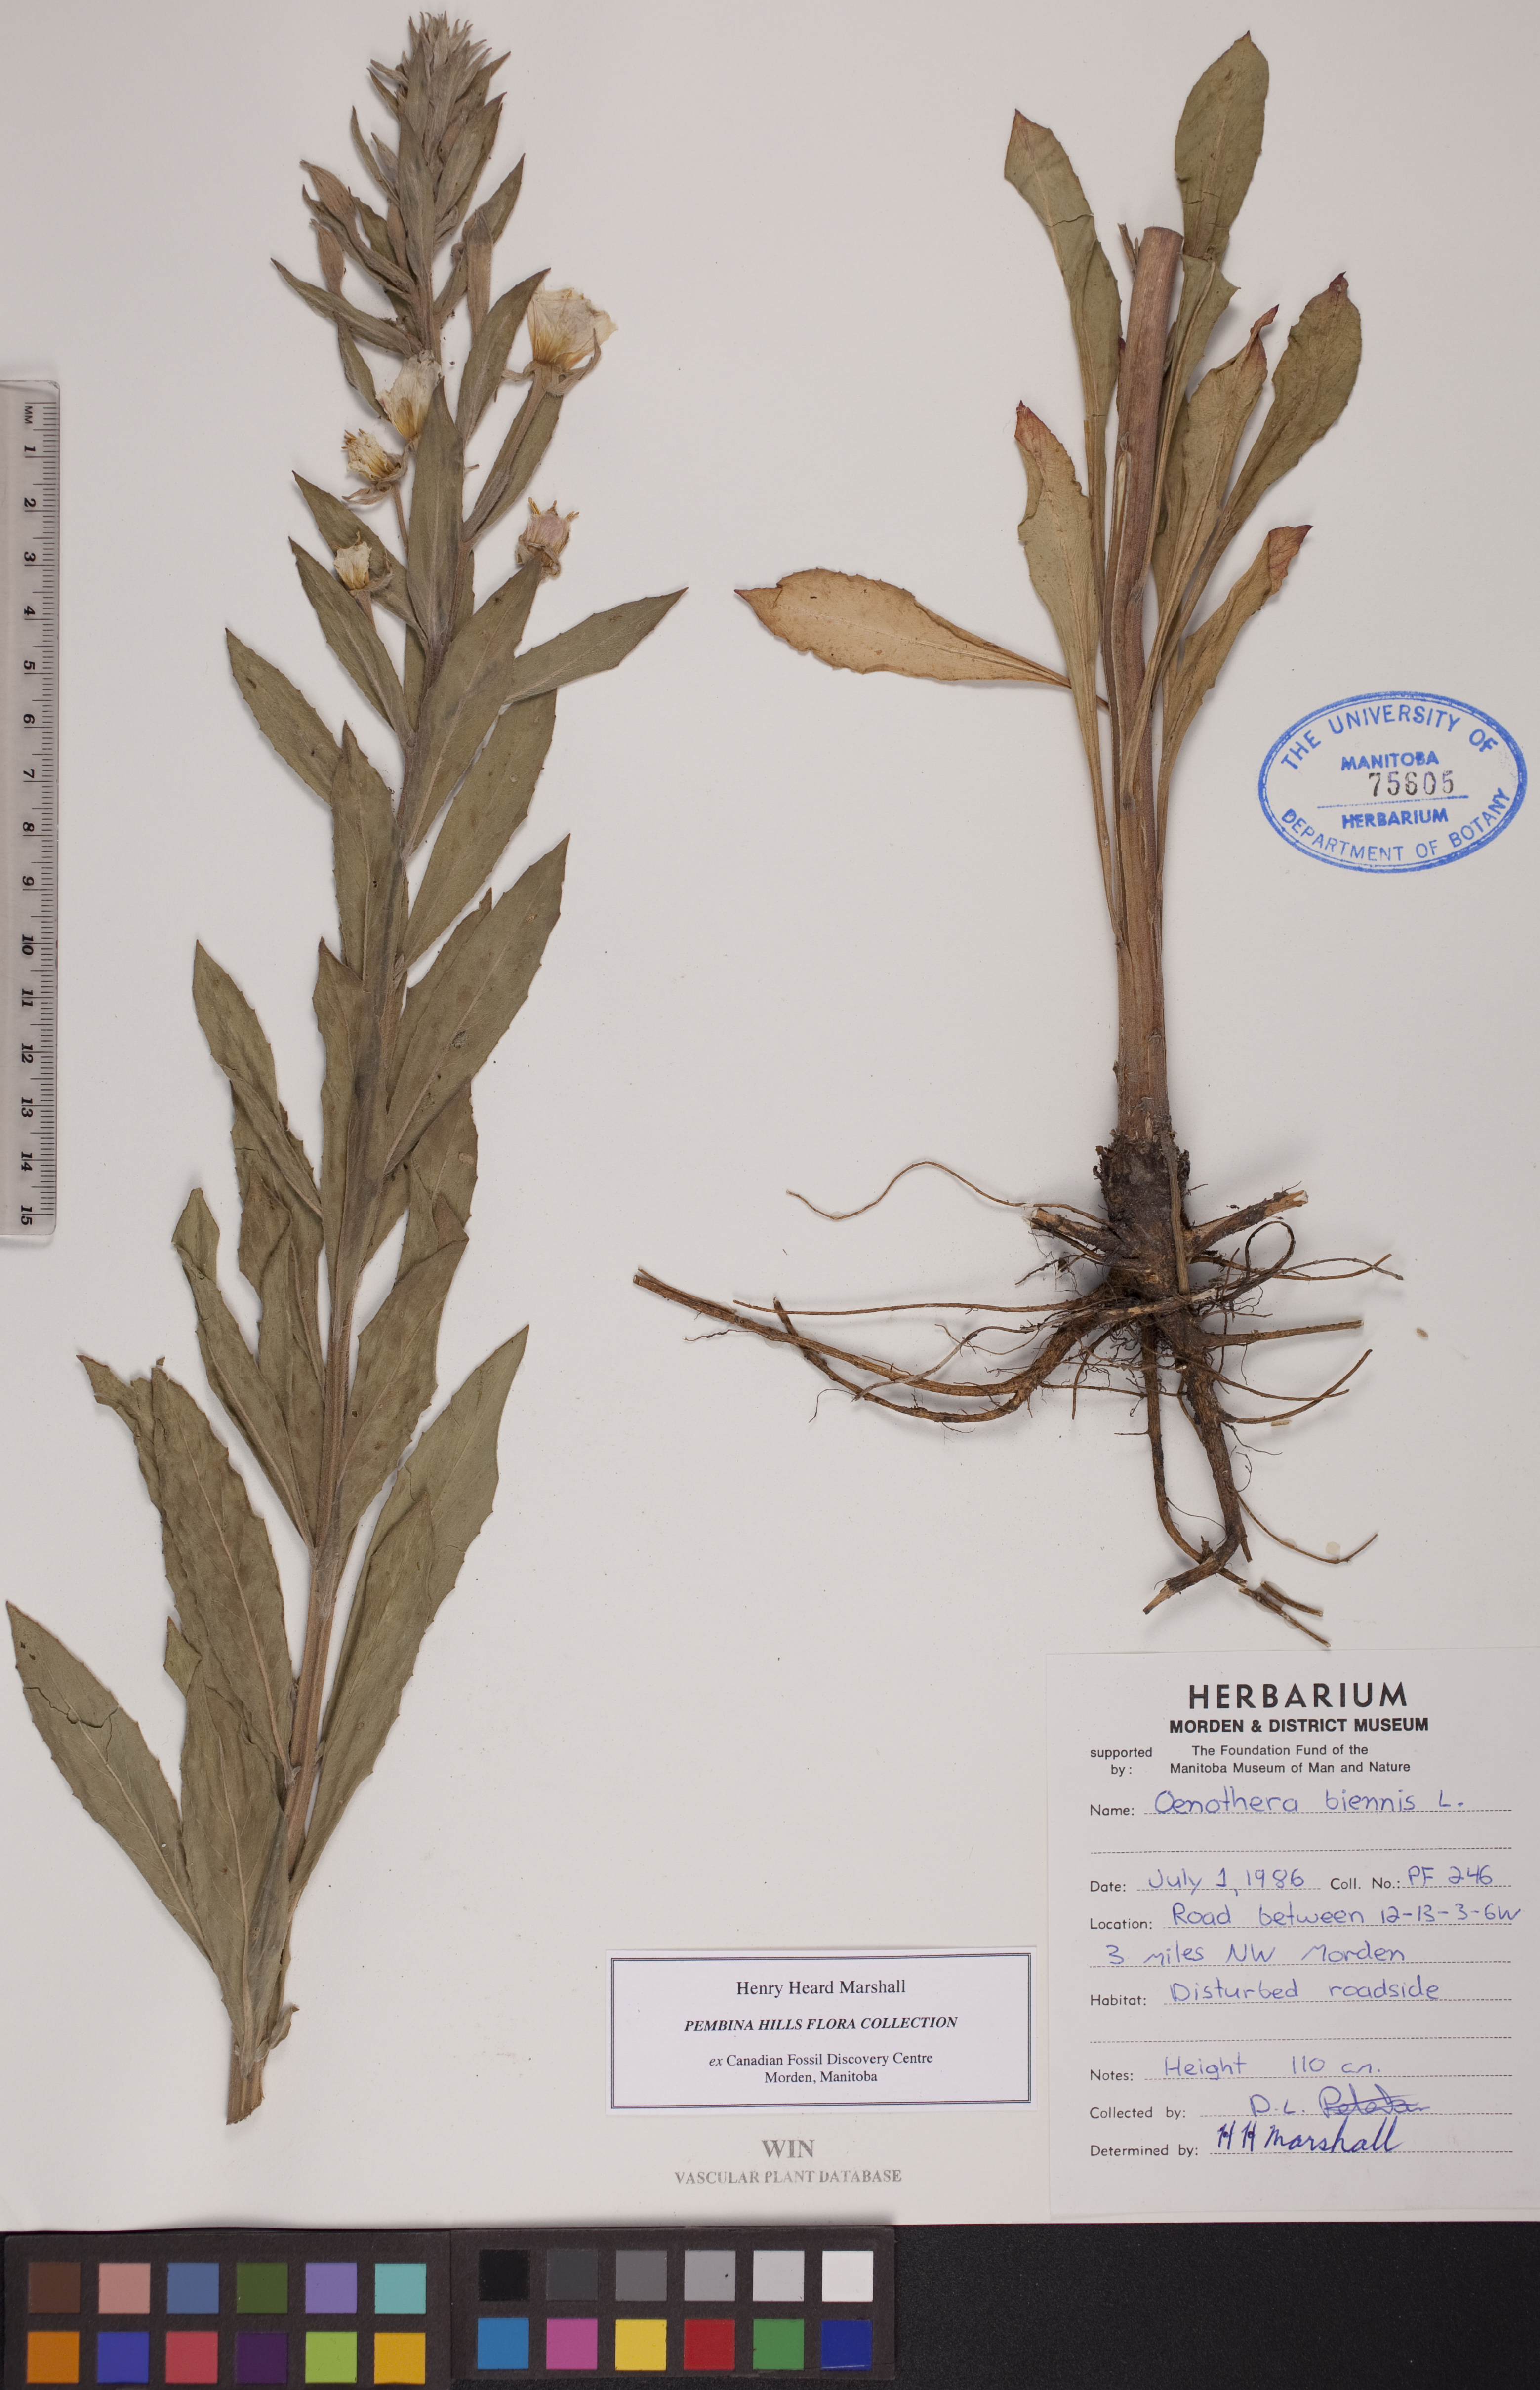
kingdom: Plantae
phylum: Tracheophyta
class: Magnoliopsida
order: Myrtales
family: Onagraceae
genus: Oenothera
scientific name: Oenothera biennis
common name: Common evening-primrose
